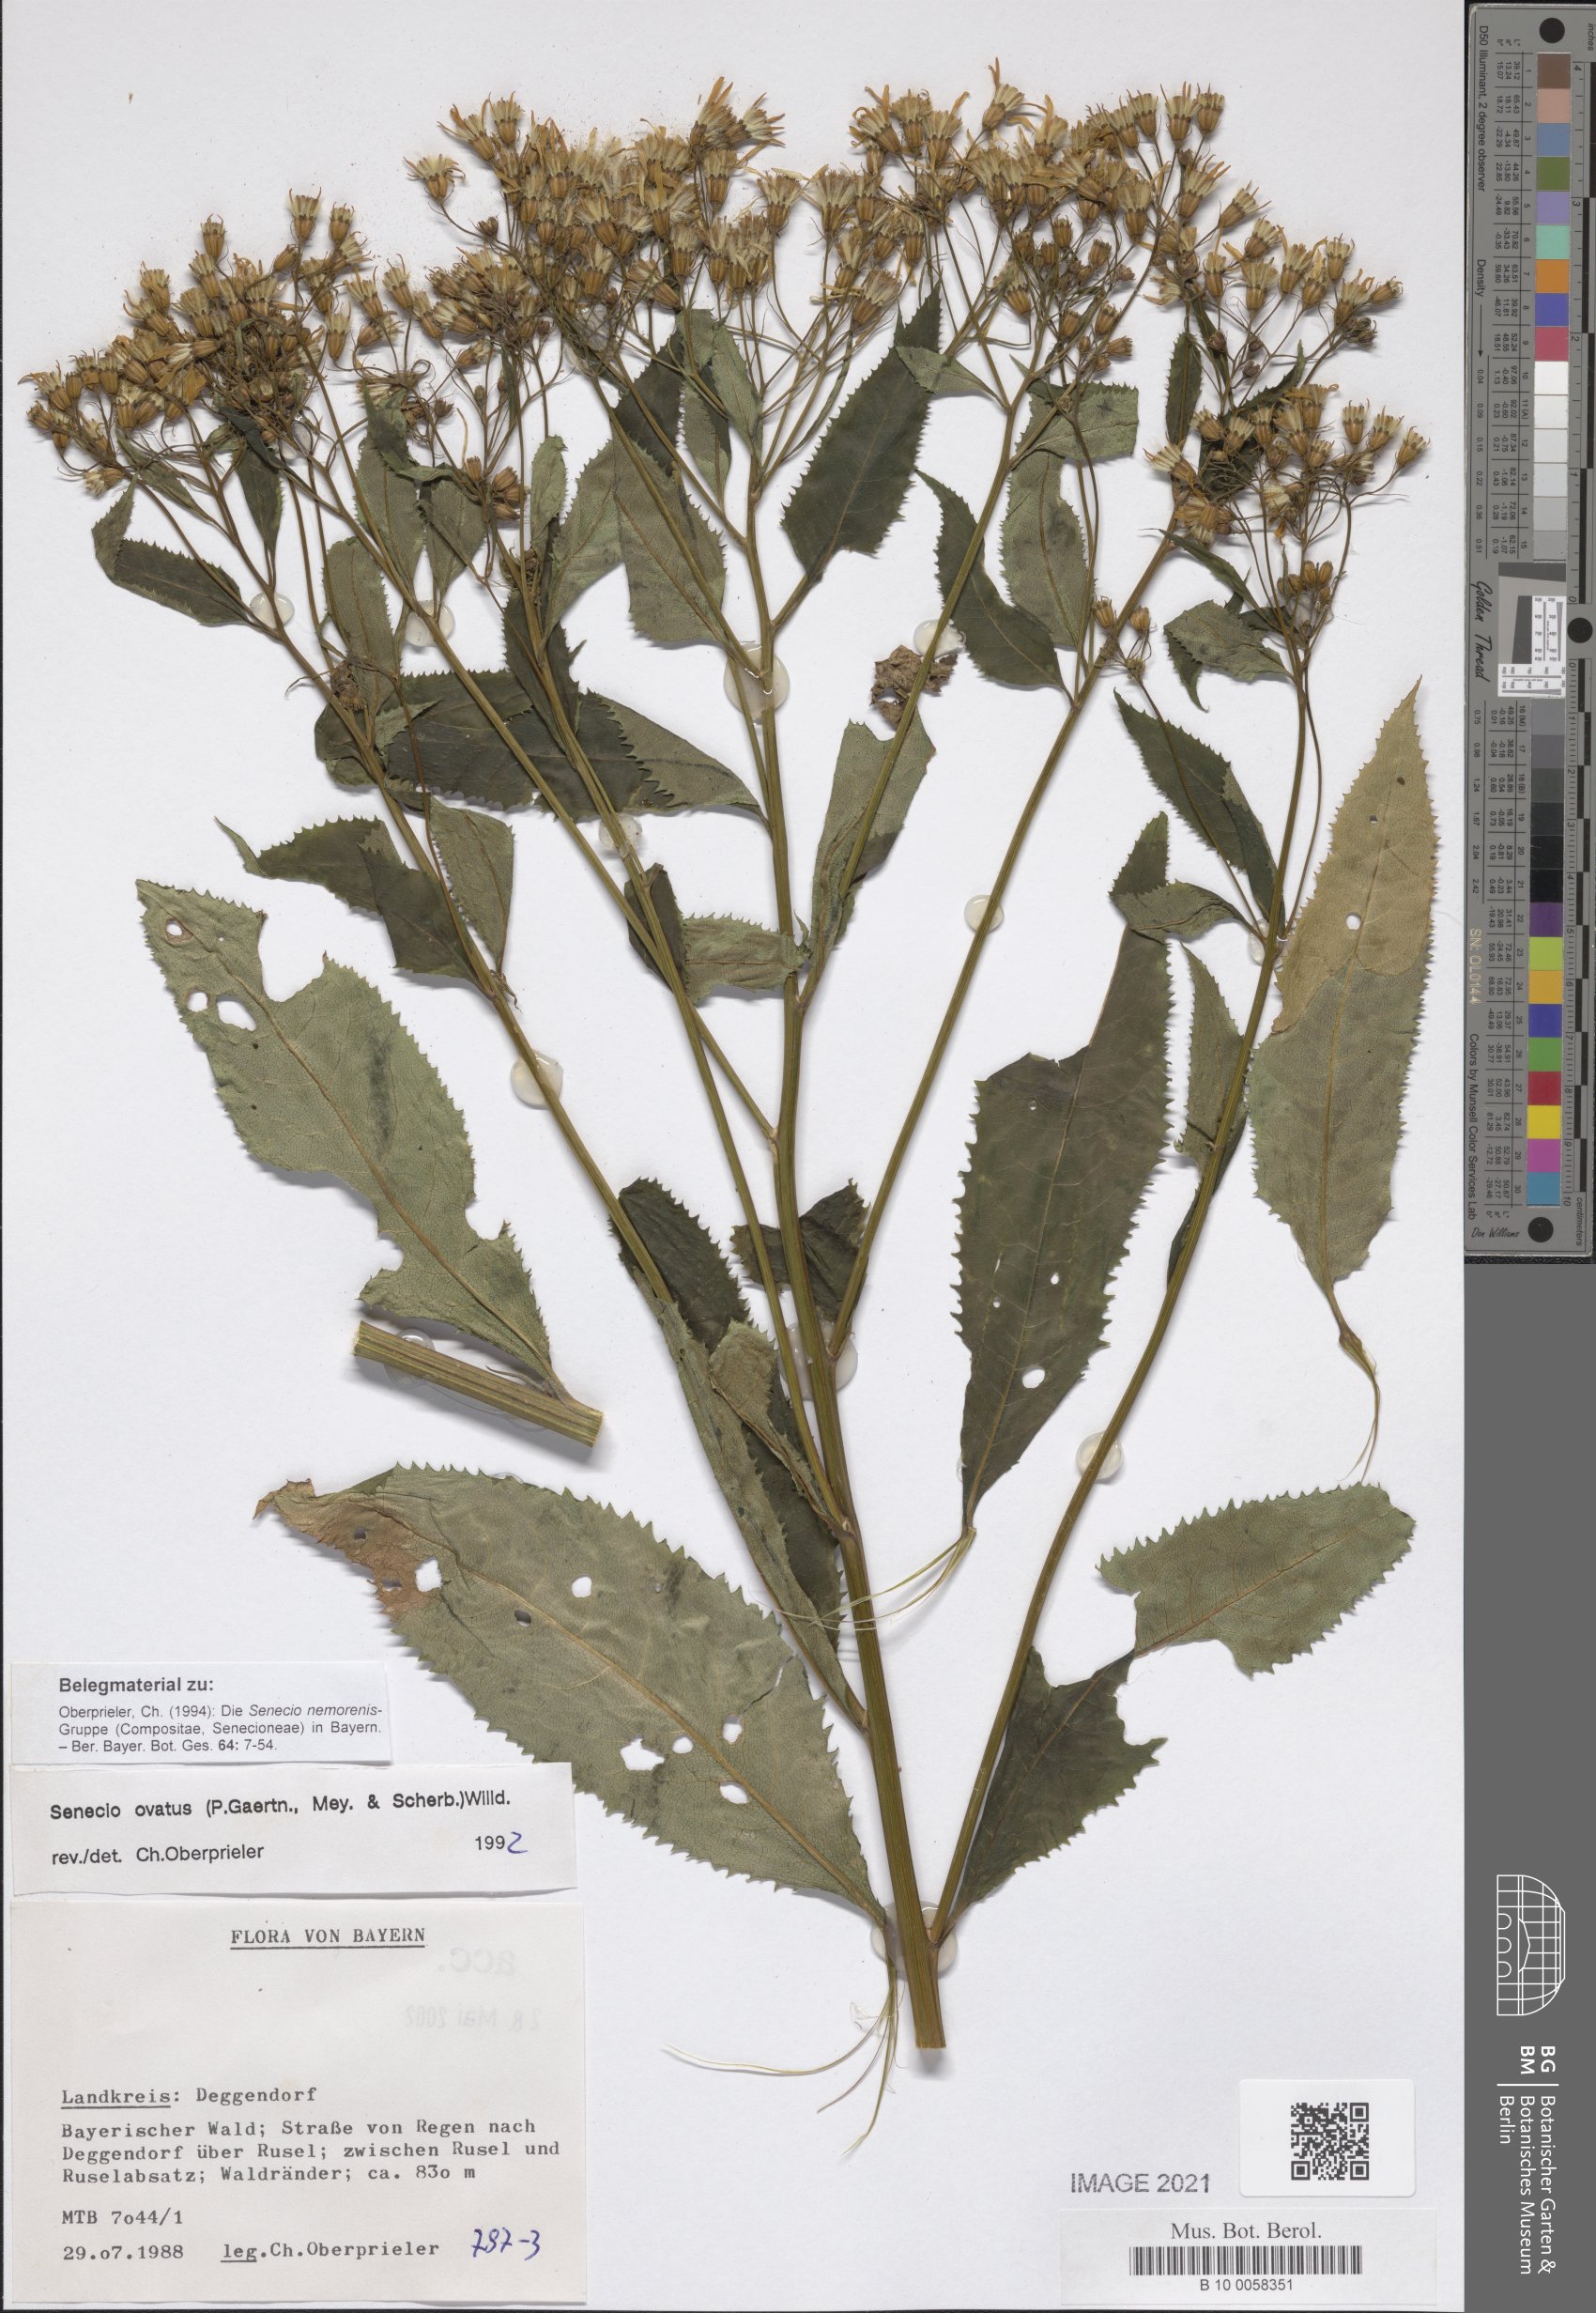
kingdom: Plantae
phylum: Tracheophyta
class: Magnoliopsida
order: Asterales
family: Asteraceae
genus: Senecio
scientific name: Senecio ovatus
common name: Wood ragwort
